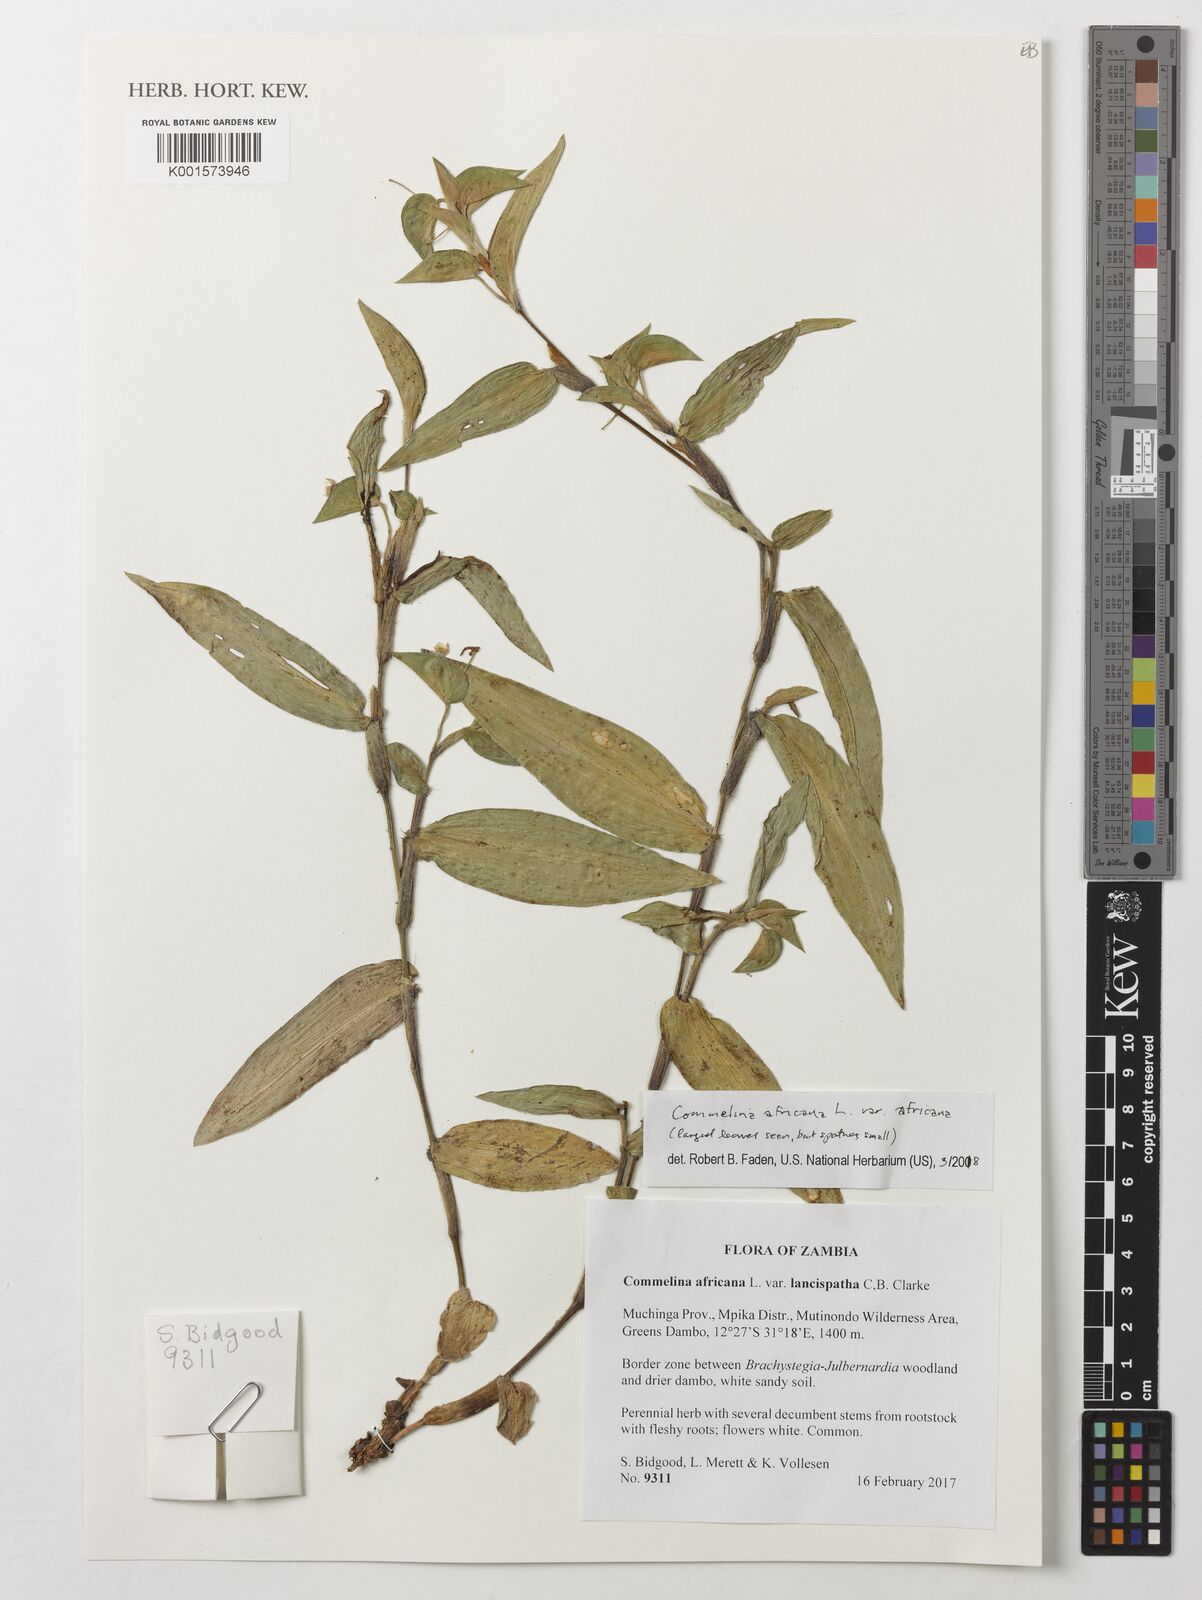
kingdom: Plantae
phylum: Tracheophyta
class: Liliopsida
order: Commelinales
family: Commelinaceae
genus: Commelina
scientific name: Commelina africana
